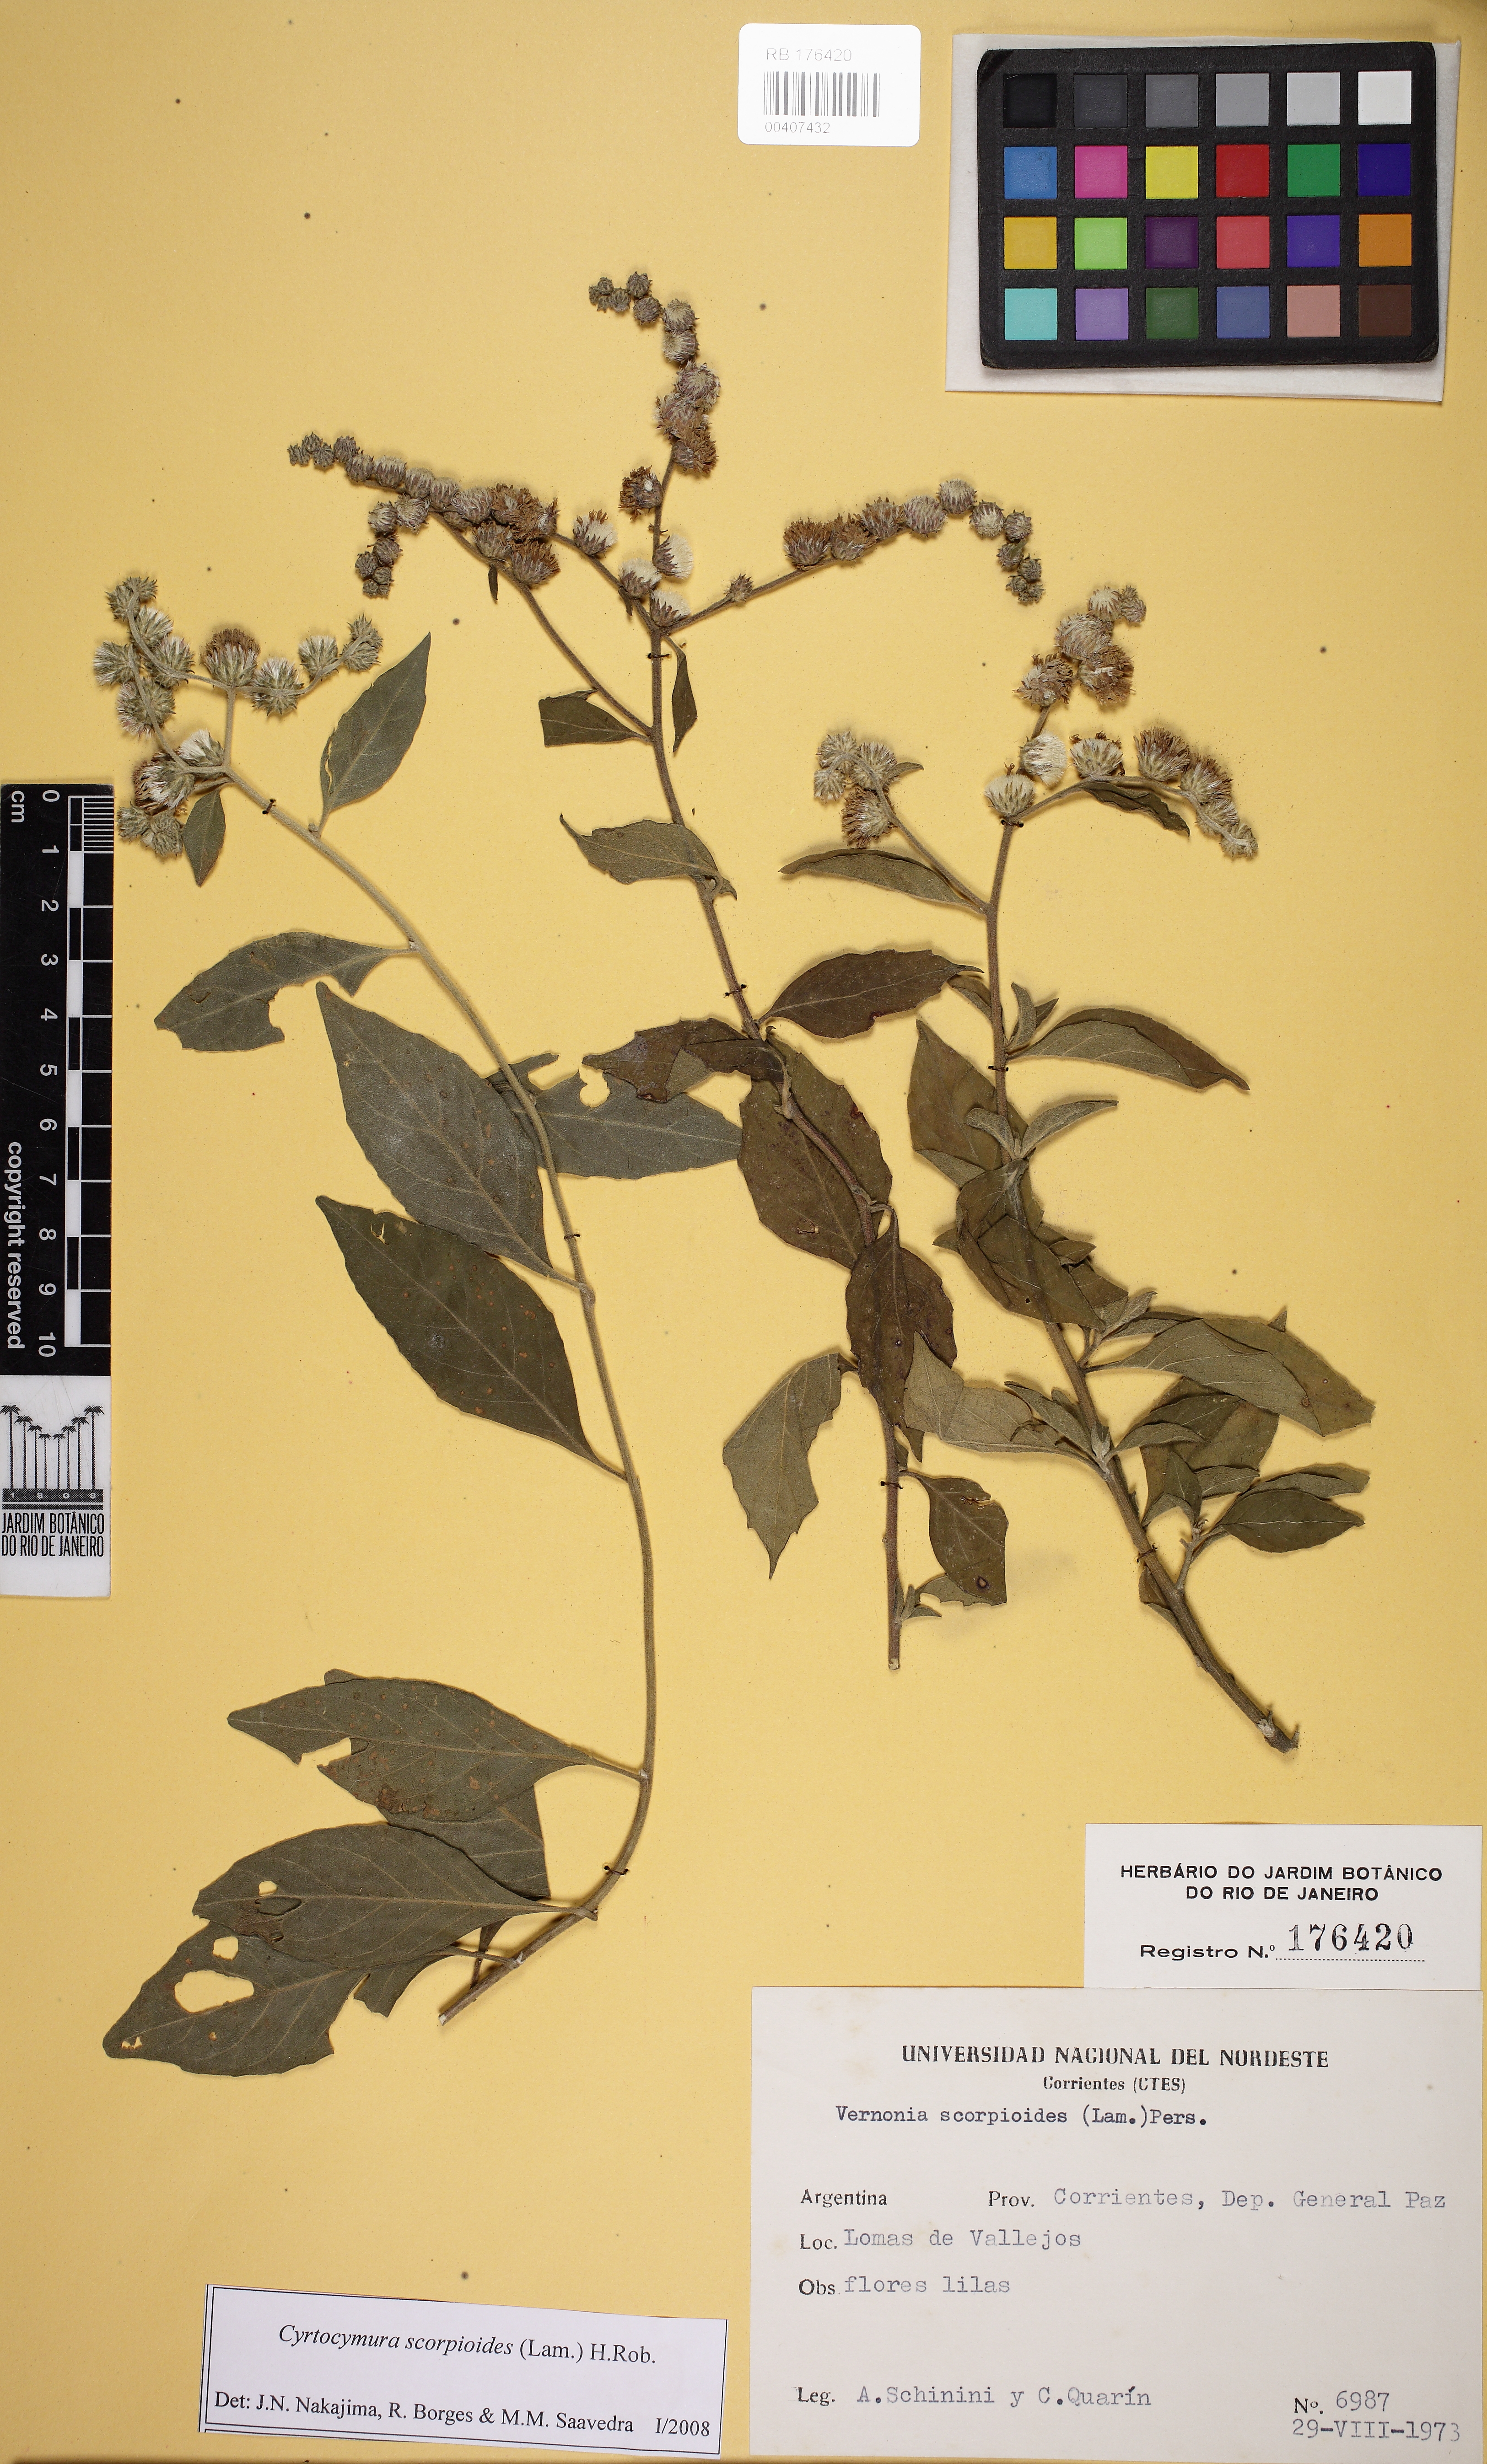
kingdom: Plantae
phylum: Tracheophyta
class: Magnoliopsida
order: Asterales
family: Asteraceae
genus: Cyrtocymura
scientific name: Cyrtocymura scorpioides
